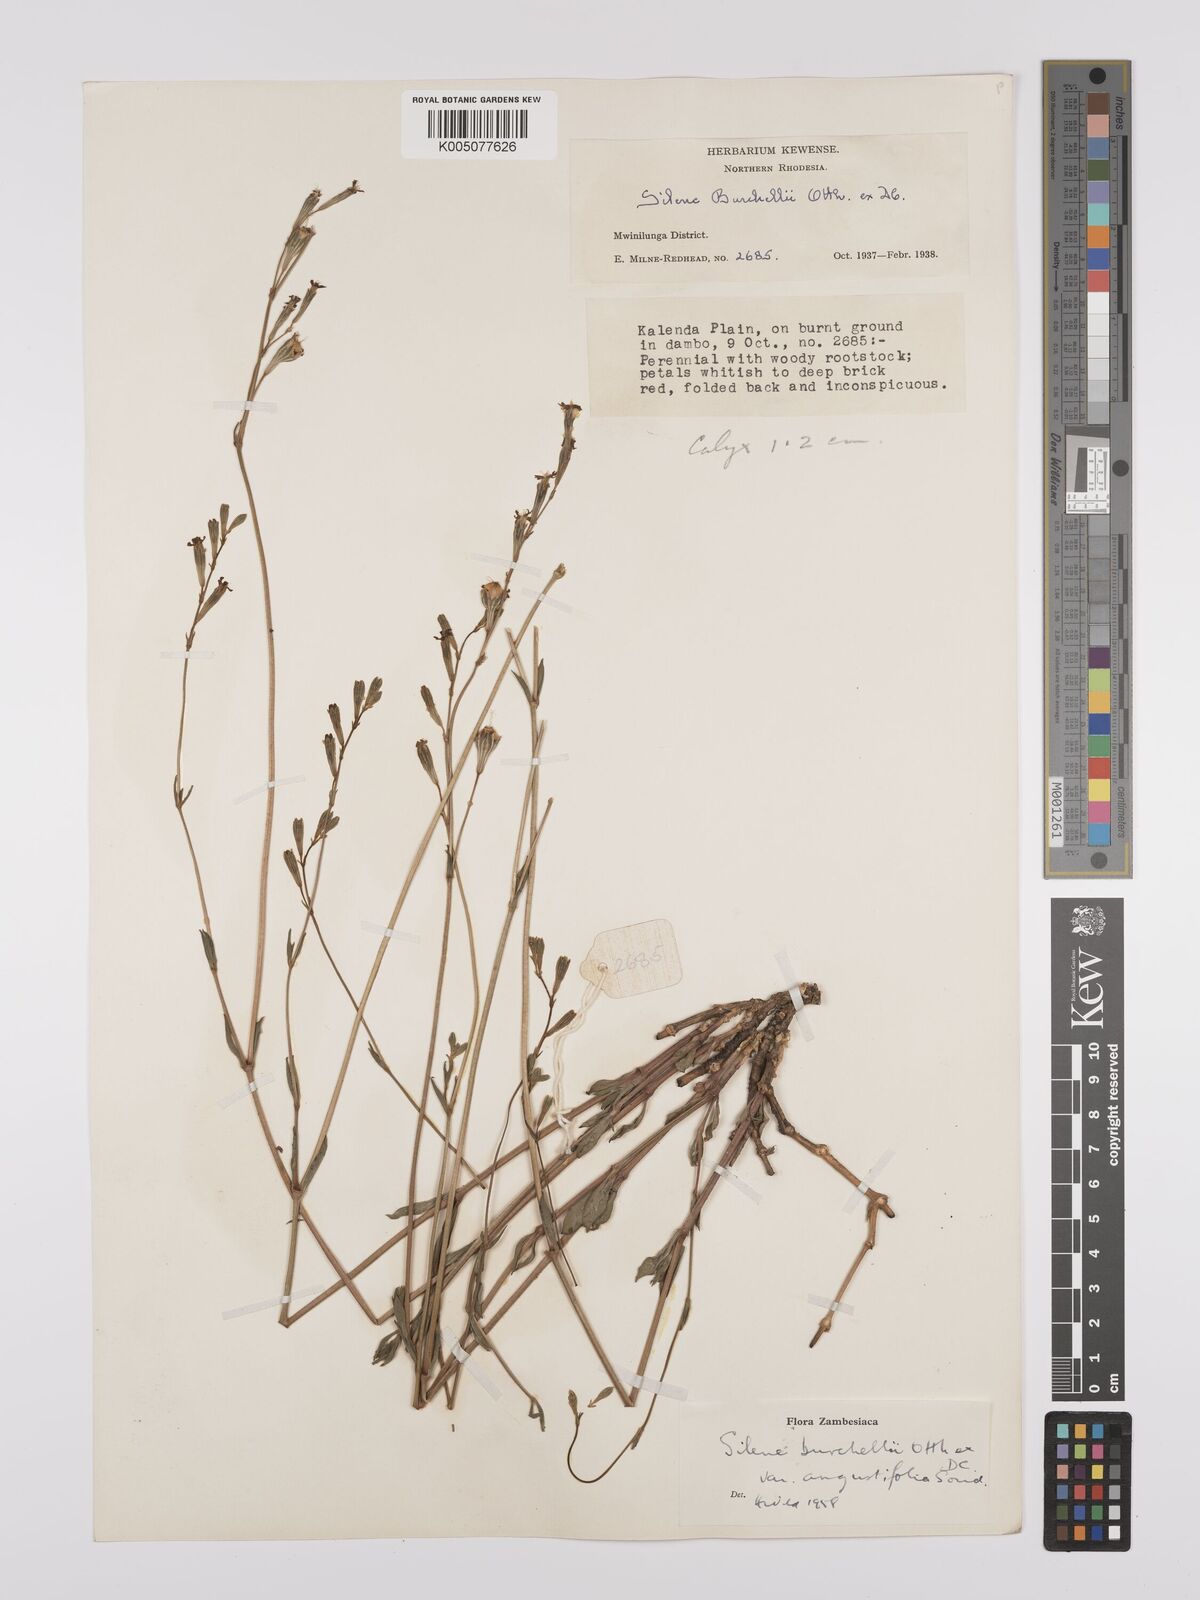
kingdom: Plantae
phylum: Tracheophyta
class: Magnoliopsida
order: Caryophyllales
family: Caryophyllaceae
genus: Silene
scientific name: Silene burchellii
